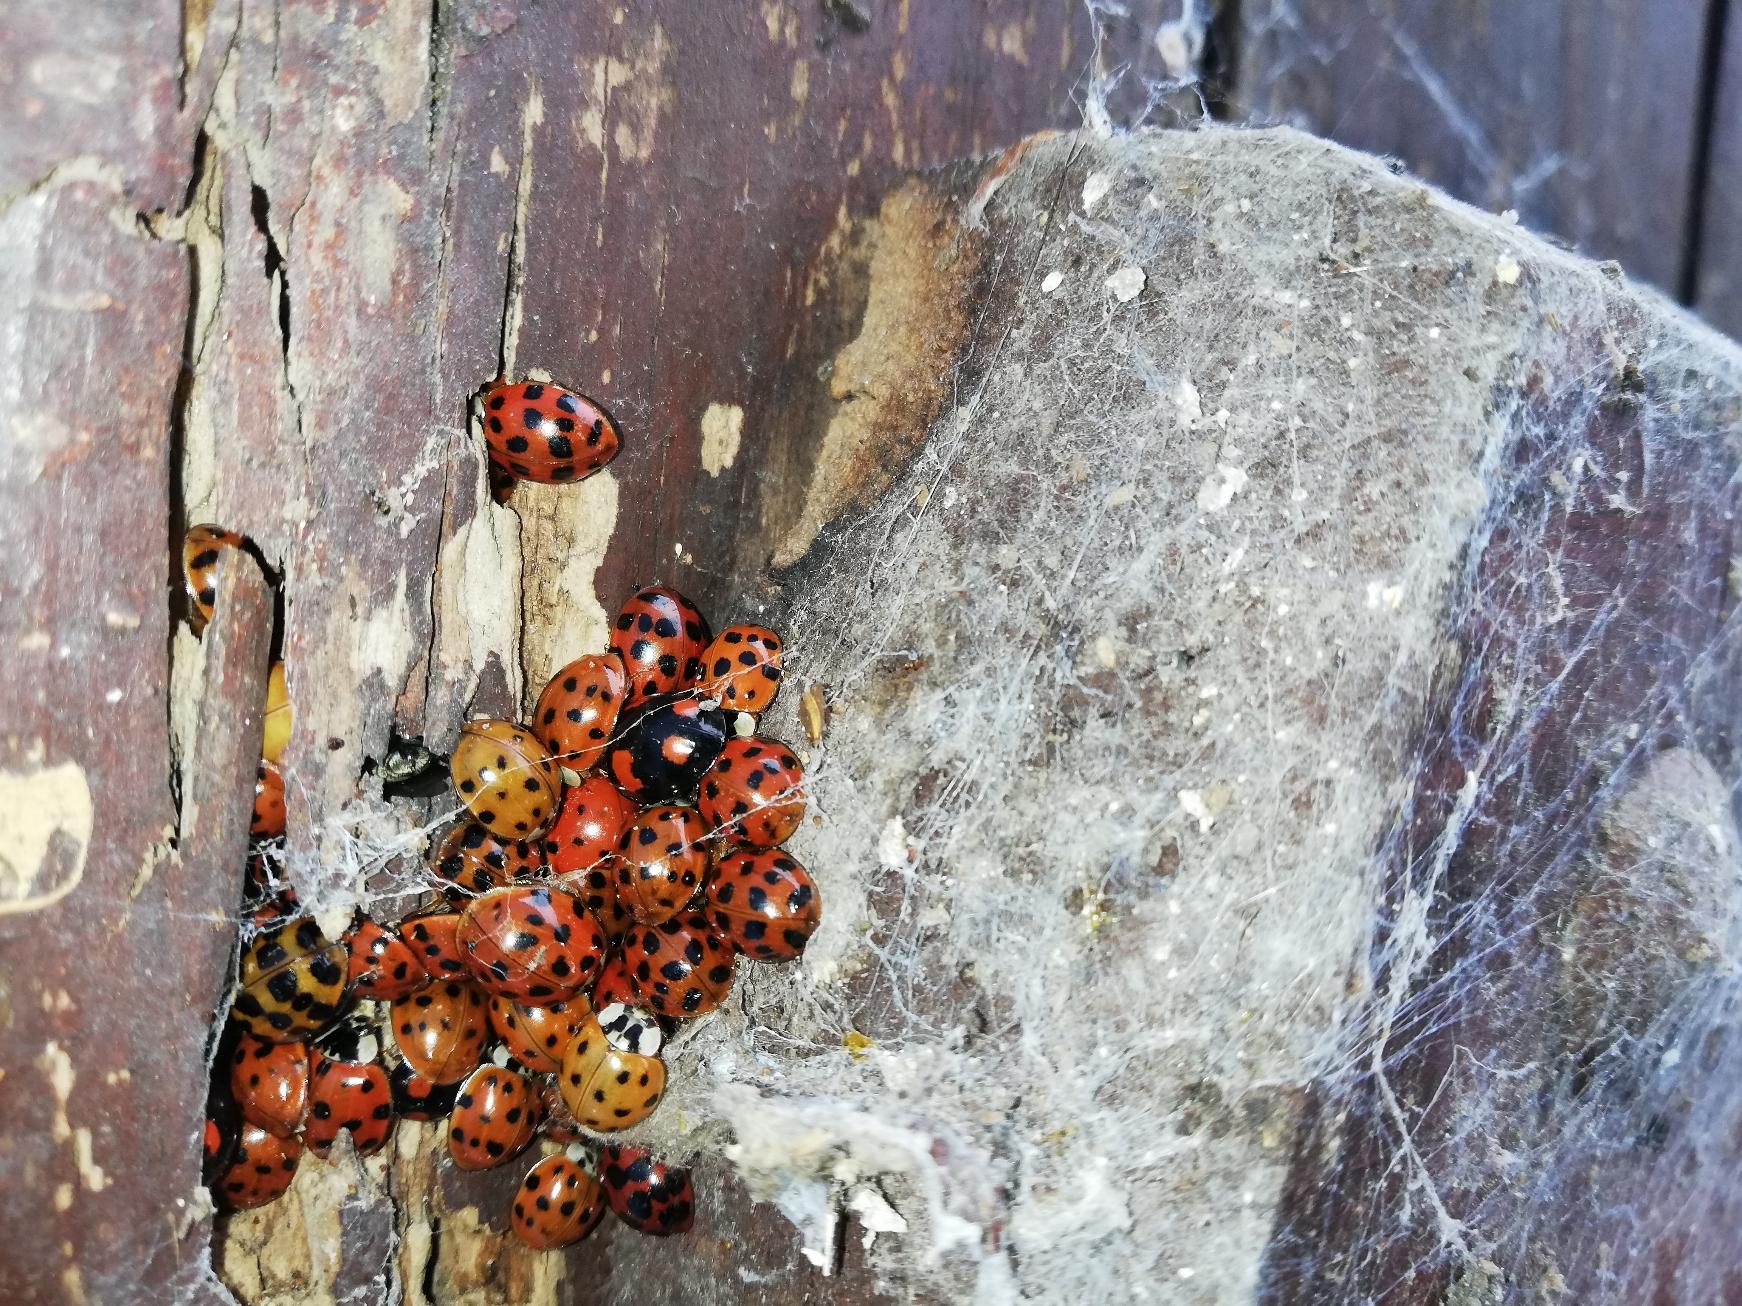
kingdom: Animalia
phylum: Arthropoda
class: Insecta
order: Coleoptera
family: Coccinellidae
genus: Harmonia
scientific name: Harmonia axyridis
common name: Harlekinmariehøne
